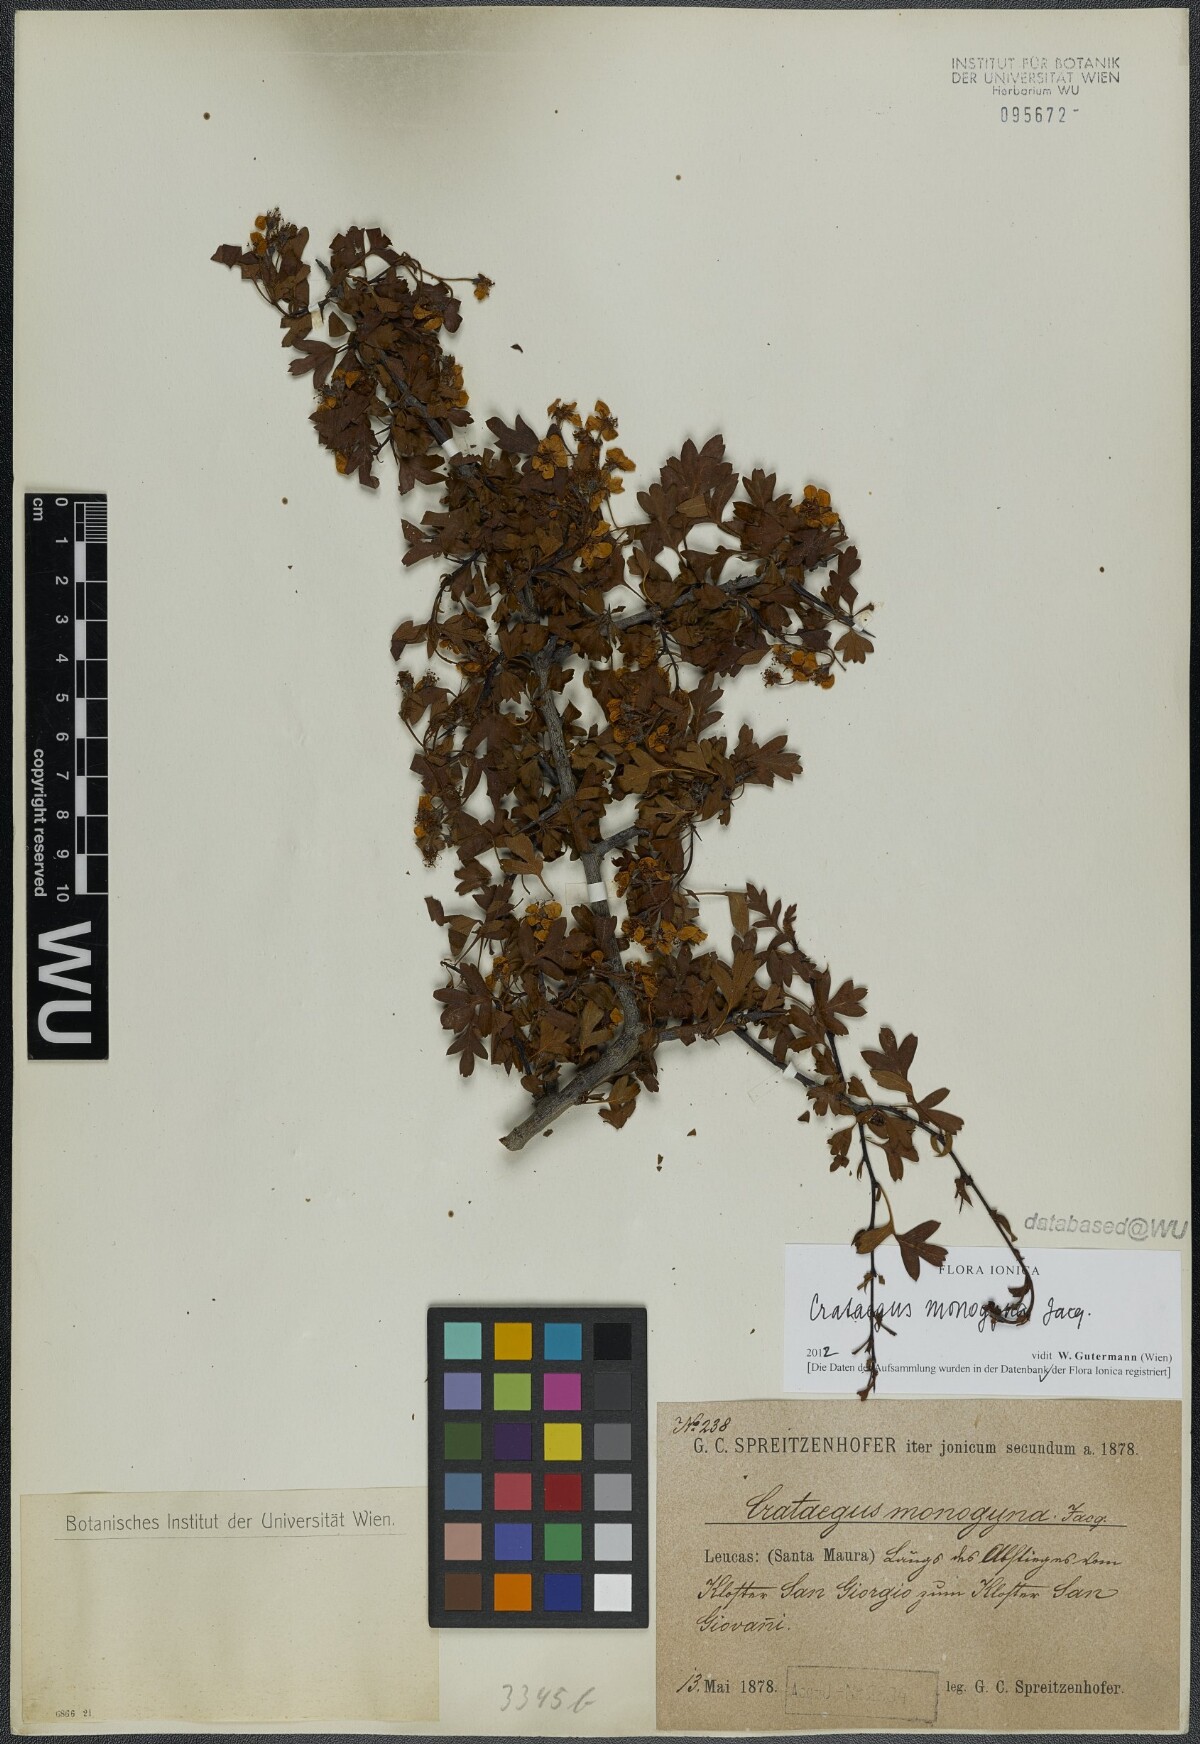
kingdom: Plantae
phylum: Tracheophyta
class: Magnoliopsida
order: Rosales
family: Rosaceae
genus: Crataegus
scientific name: Crataegus monogyna
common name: Hawthorn
